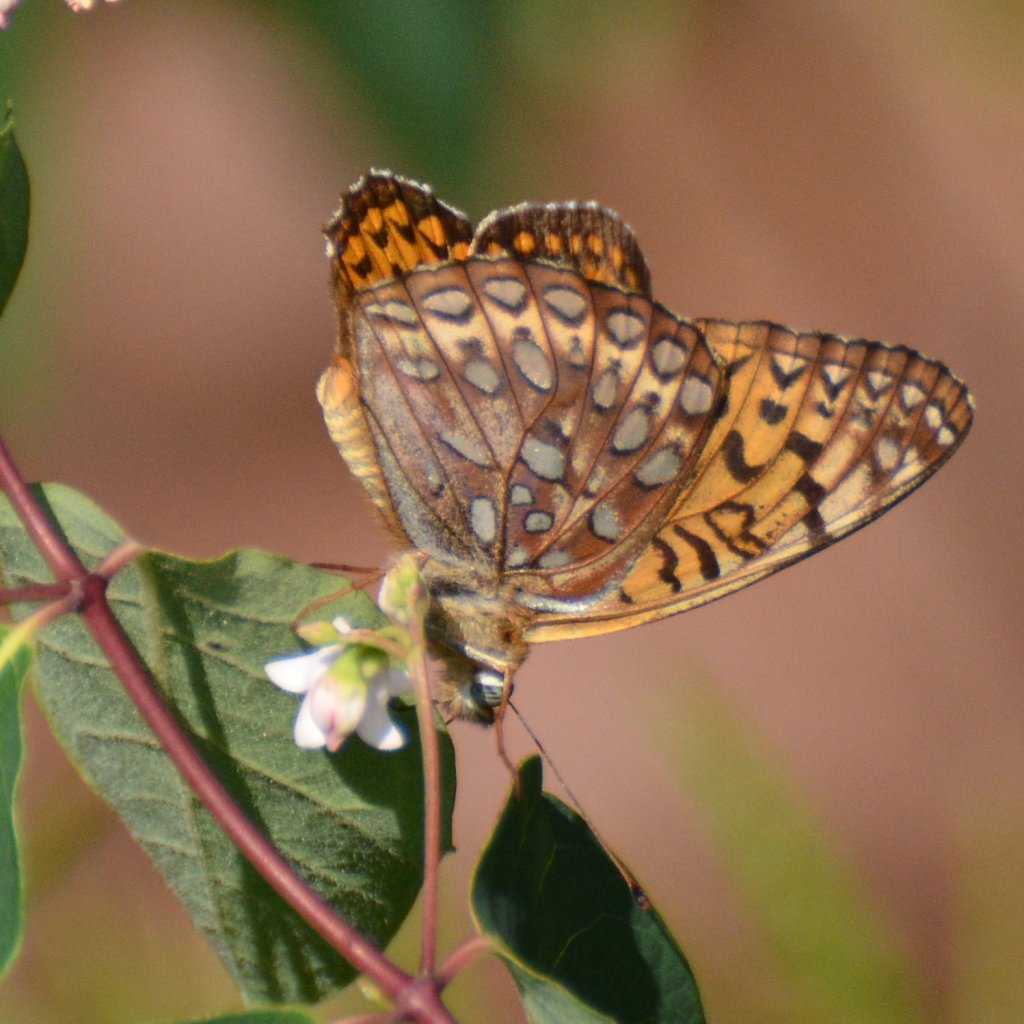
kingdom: Animalia
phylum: Arthropoda
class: Insecta
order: Lepidoptera
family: Nymphalidae
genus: Speyeria
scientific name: Speyeria atlantis
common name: Atlantis Fritillary
